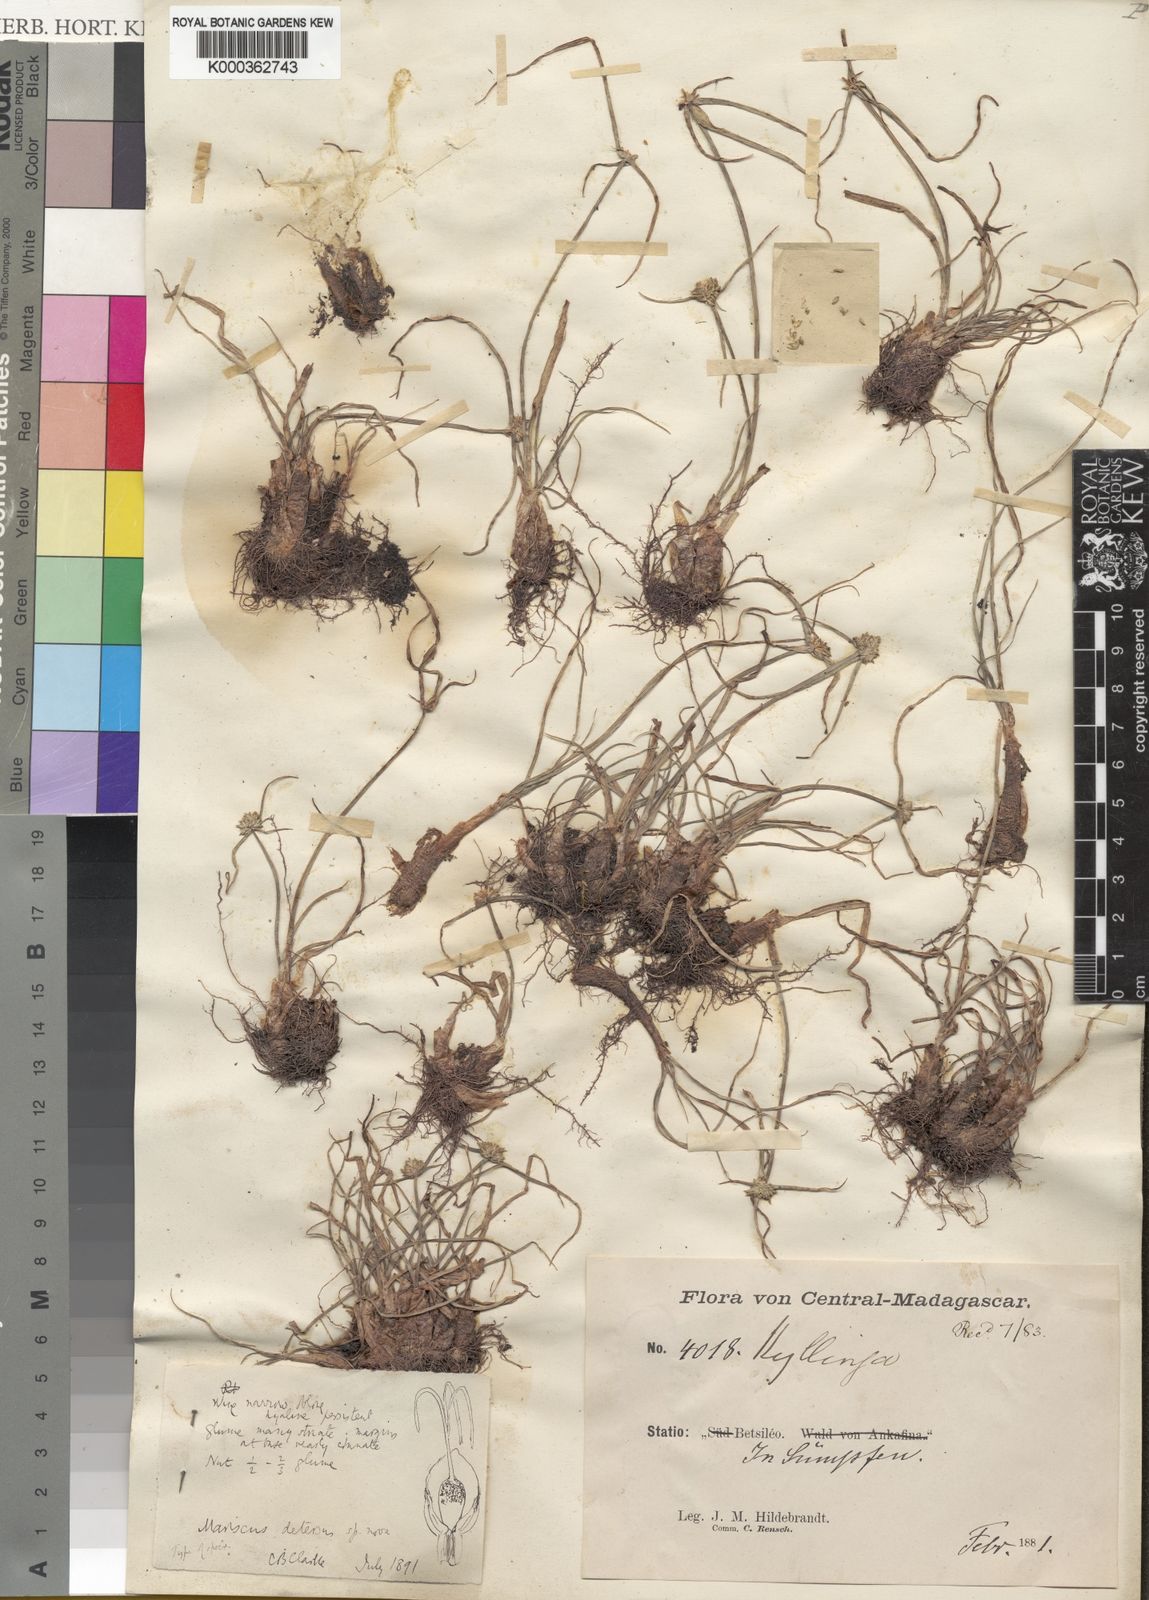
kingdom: Plantae
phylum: Tracheophyta
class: Liliopsida
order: Poales
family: Cyperaceae
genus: Cyperus
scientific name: Cyperus dubius
